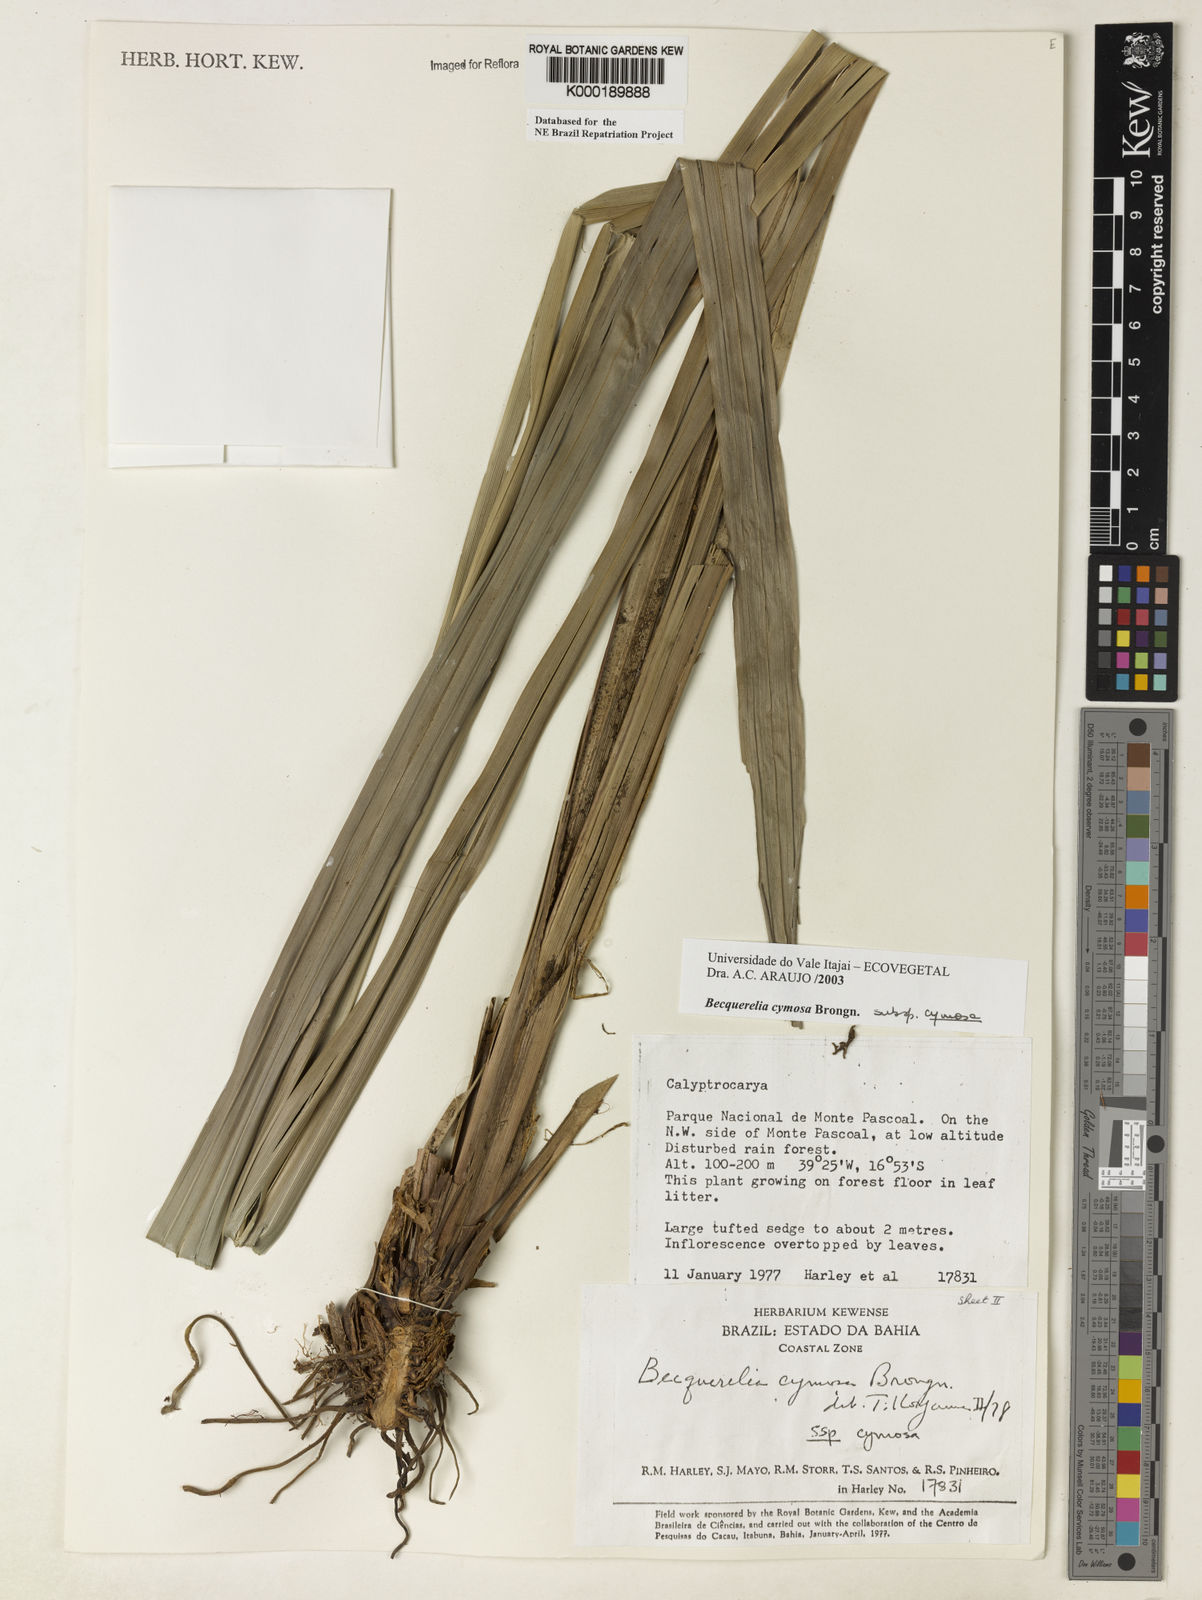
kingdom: Plantae
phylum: Tracheophyta
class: Liliopsida
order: Poales
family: Cyperaceae
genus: Becquerelia
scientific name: Becquerelia cymosa
